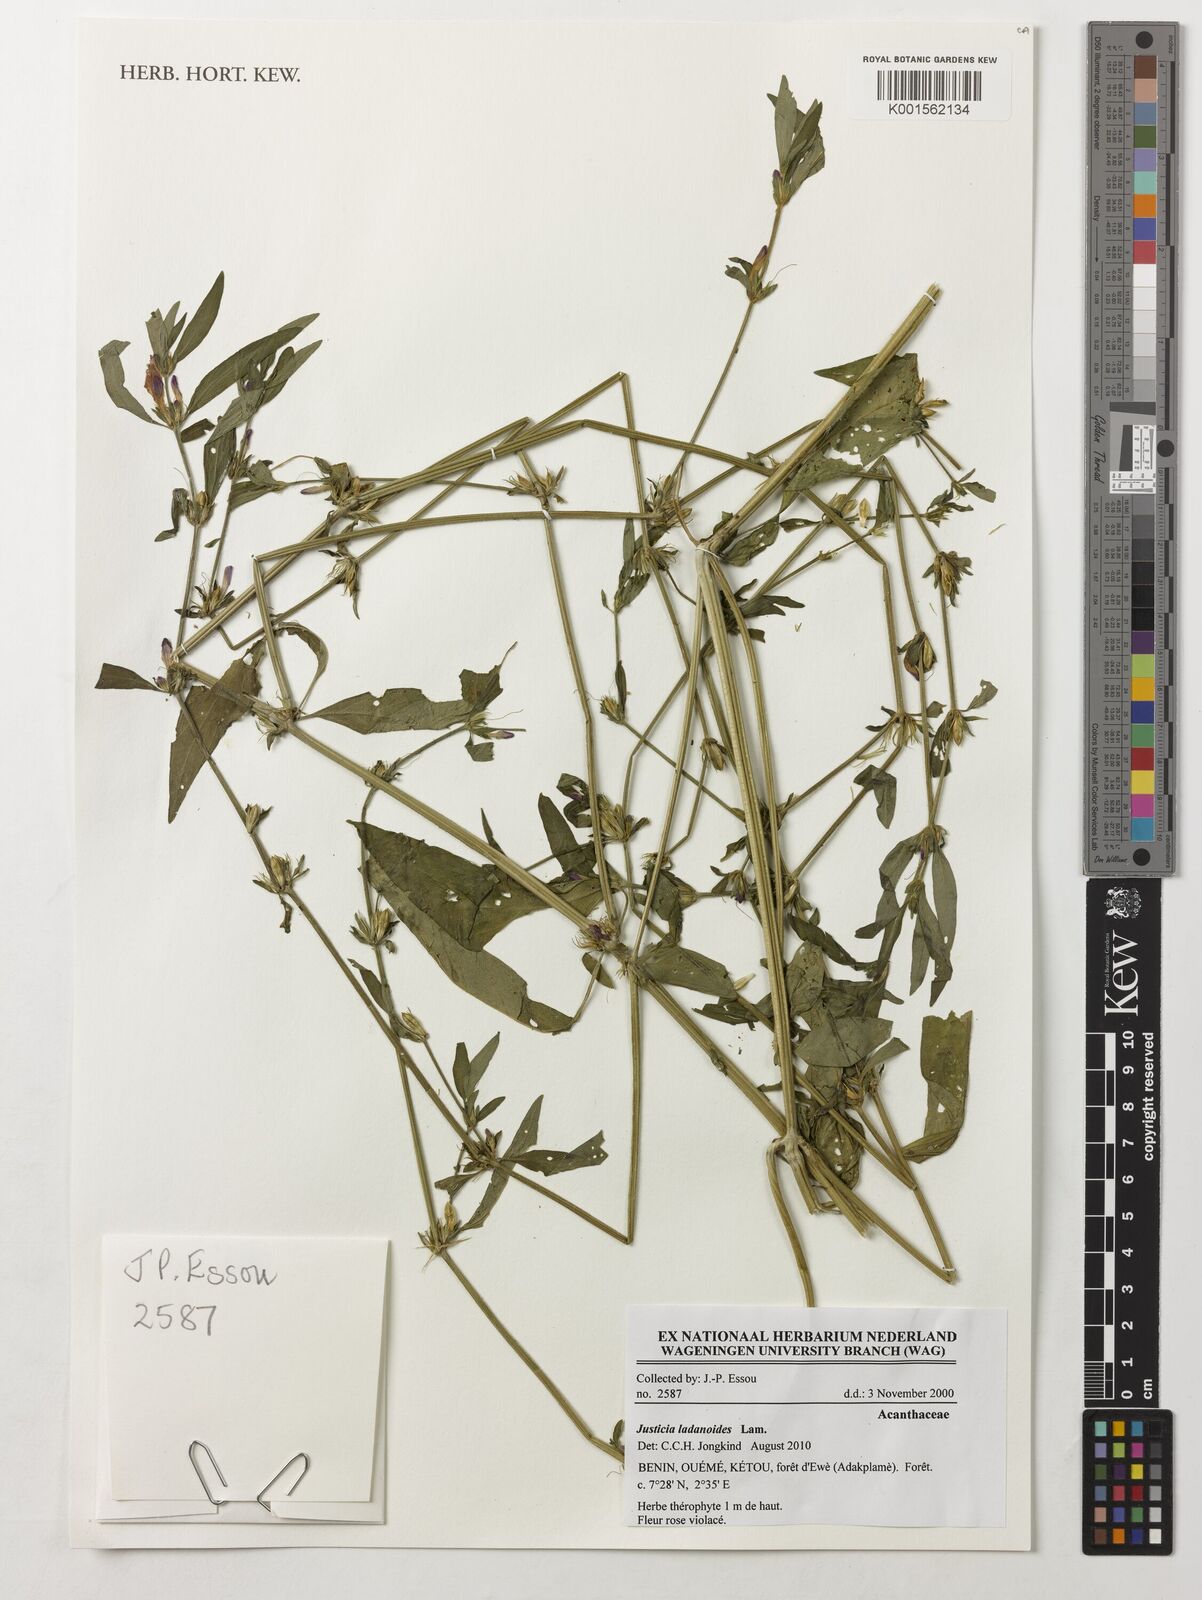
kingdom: Plantae
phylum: Tracheophyta
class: Magnoliopsida
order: Lamiales
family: Acanthaceae
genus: Justicia
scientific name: Justicia ladanoides
